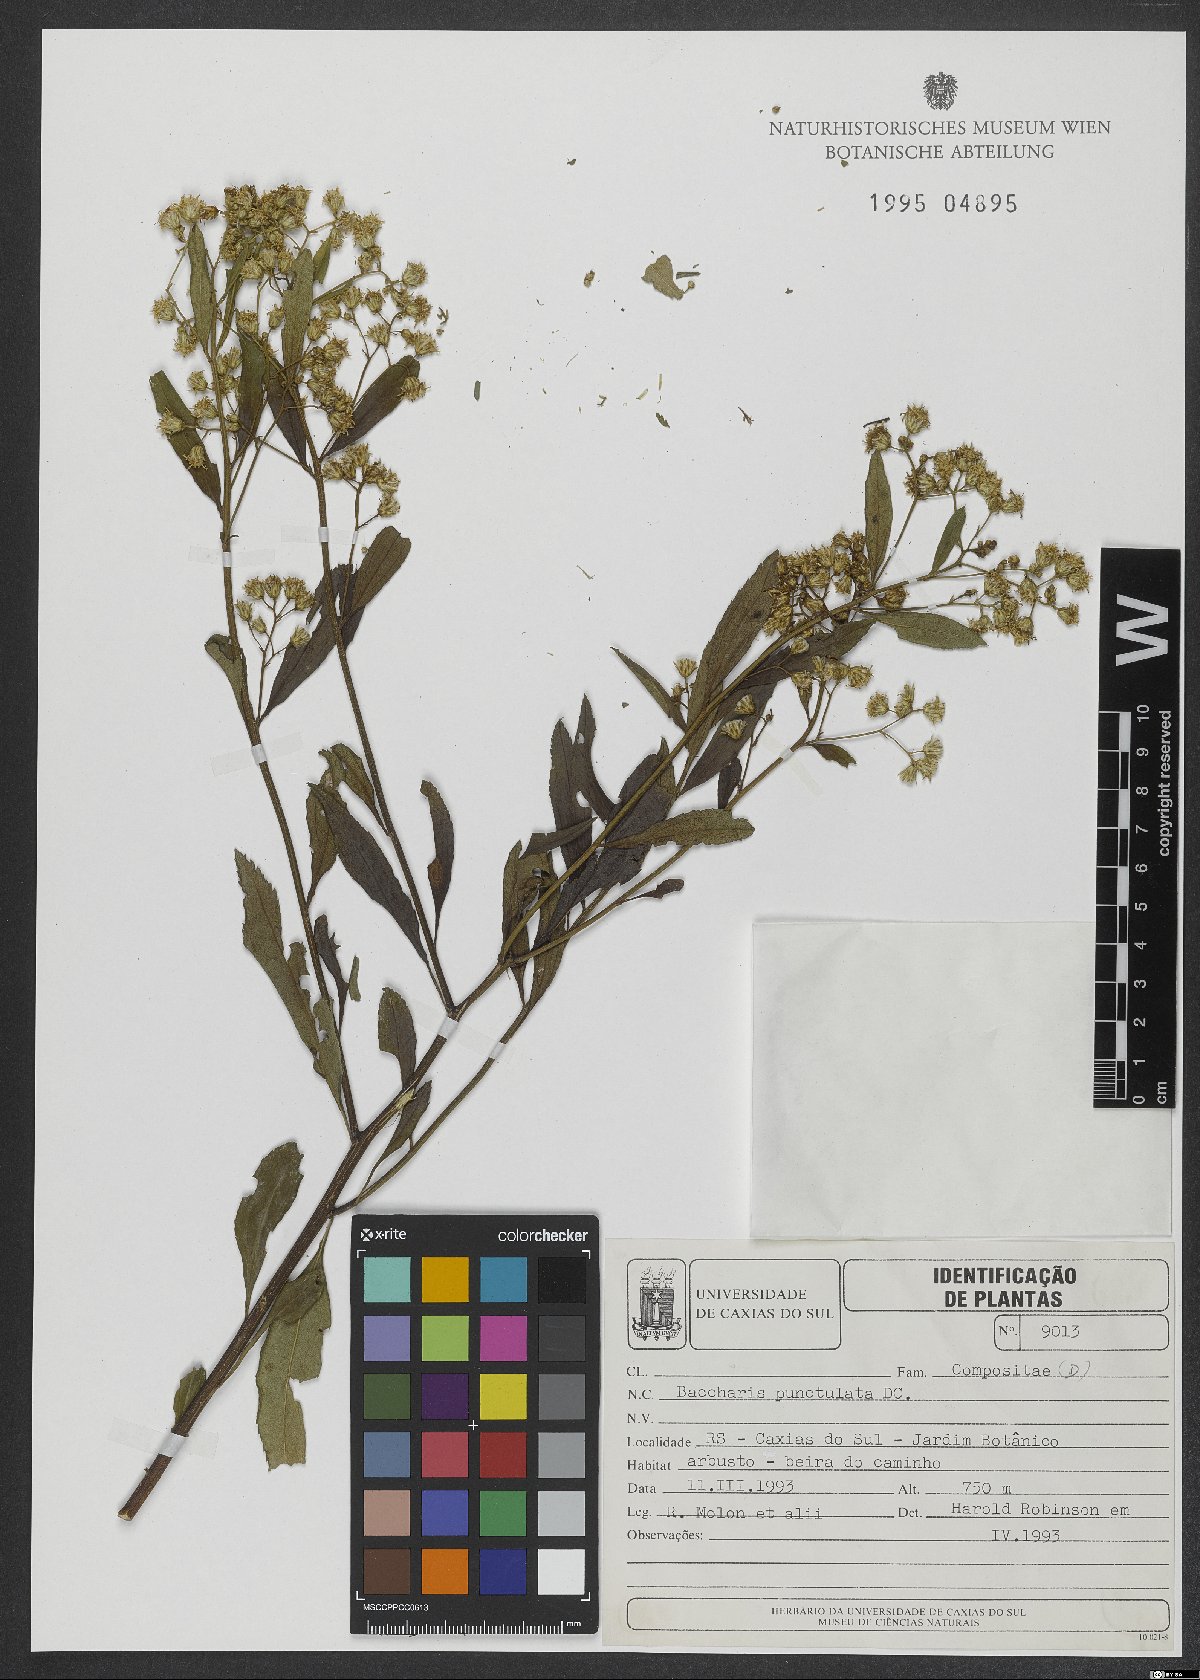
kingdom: Plantae
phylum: Tracheophyta
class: Magnoliopsida
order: Asterales
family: Asteraceae
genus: Baccharis
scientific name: Baccharis punctulata
